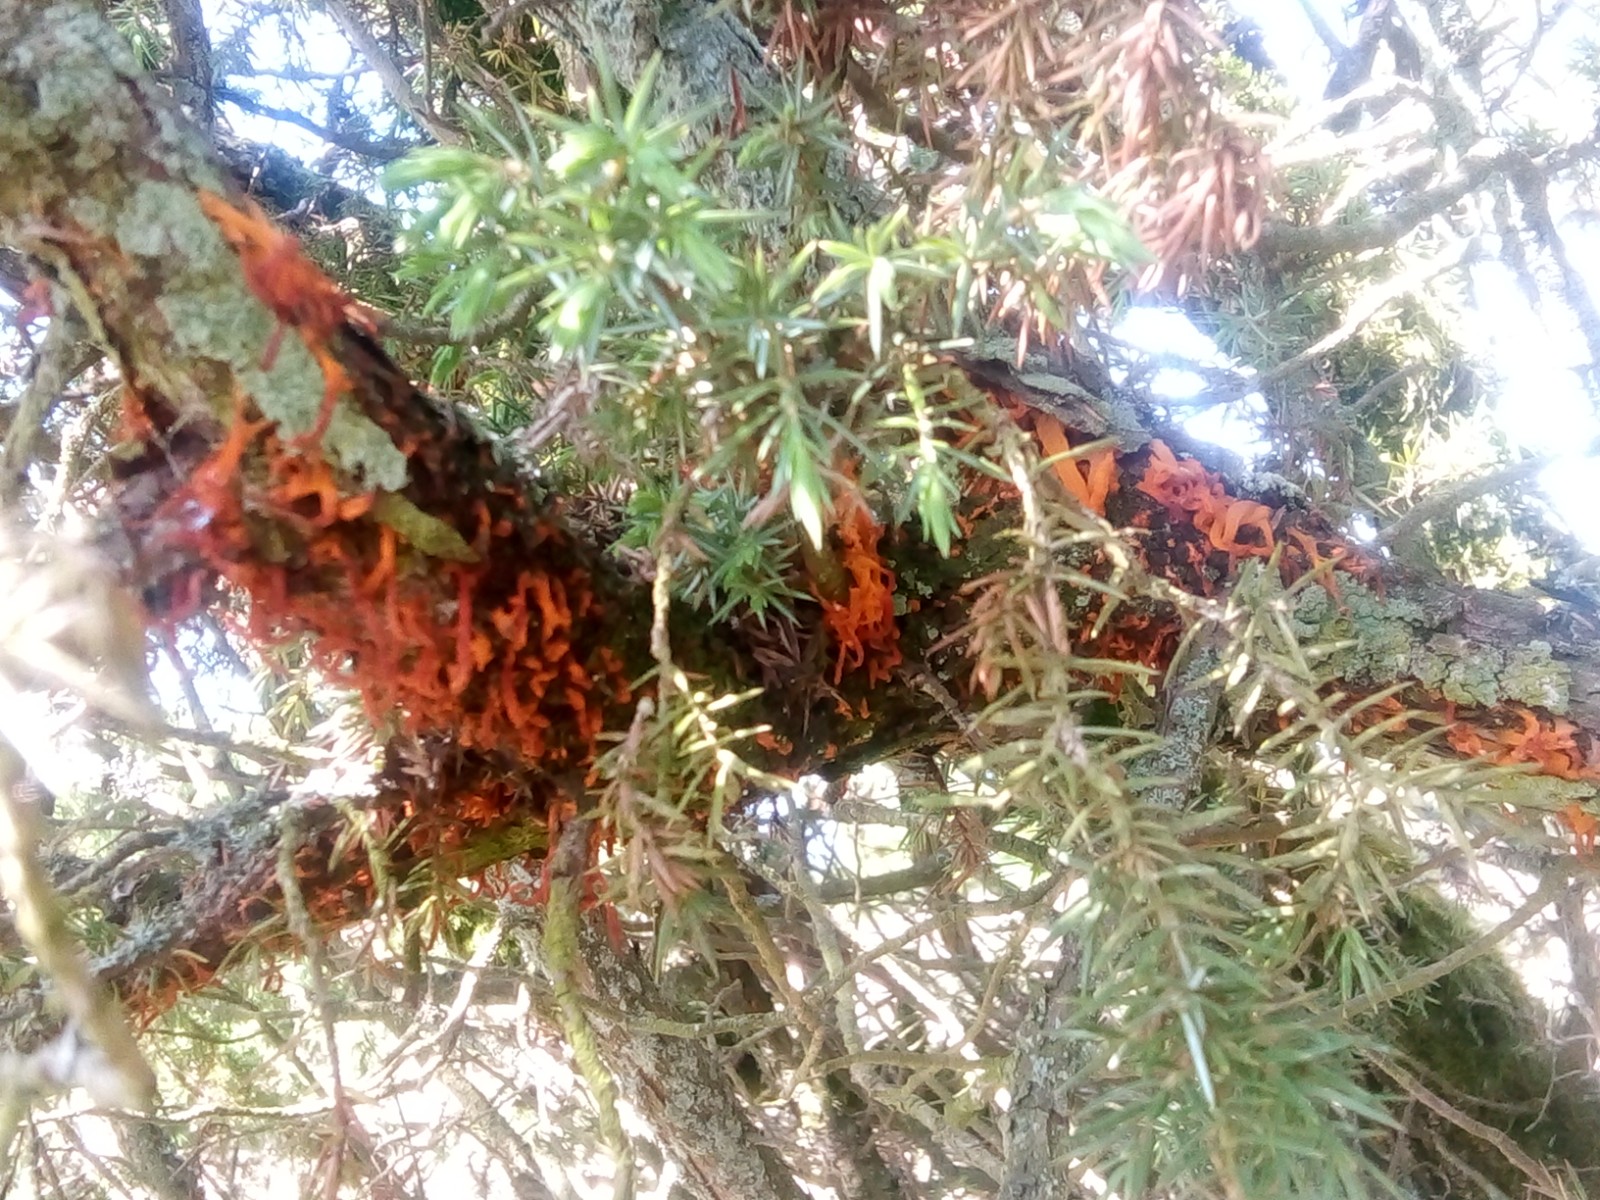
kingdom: Fungi
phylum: Basidiomycota
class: Pucciniomycetes
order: Pucciniales
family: Gymnosporangiaceae
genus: Gymnosporangium
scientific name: Gymnosporangium clavariiforme
